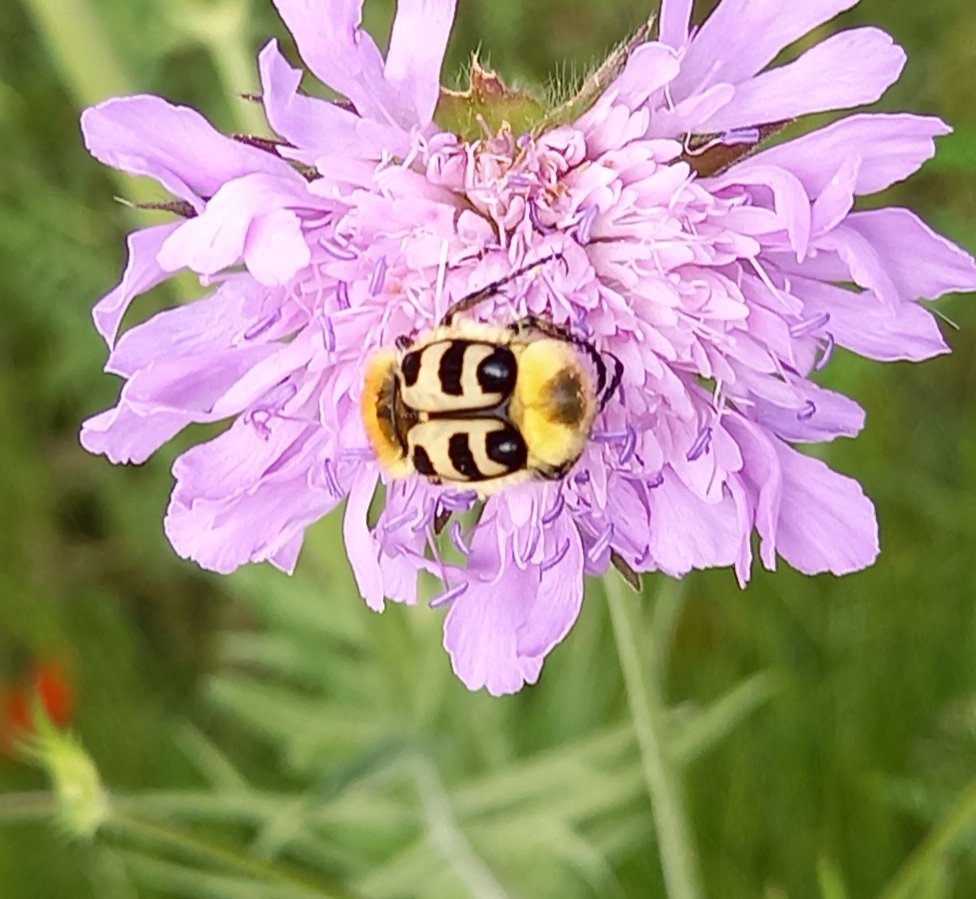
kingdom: Animalia
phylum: Arthropoda
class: Insecta
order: Coleoptera
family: Scarabaeidae
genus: Trichius
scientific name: Trichius gallicus
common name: Lille humlebille
